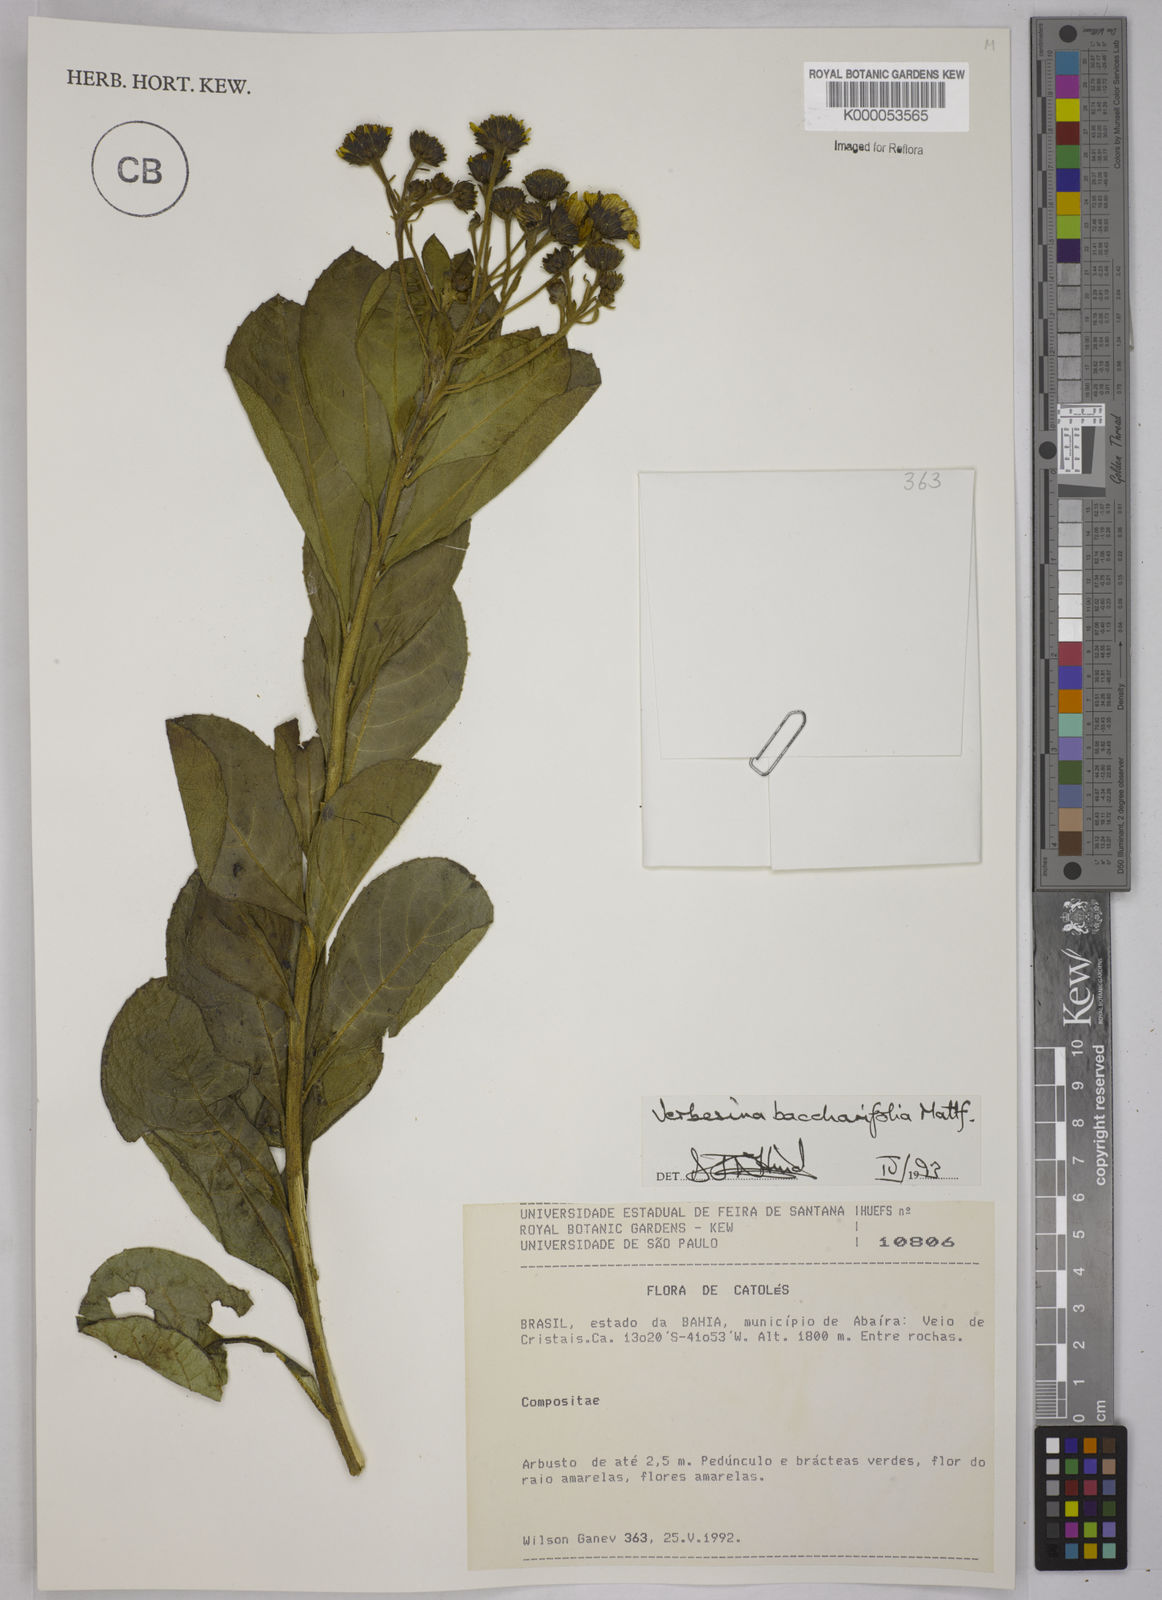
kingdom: Plantae
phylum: Tracheophyta
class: Magnoliopsida
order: Asterales
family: Asteraceae
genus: Verbesina
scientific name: Verbesina baccharifolia
